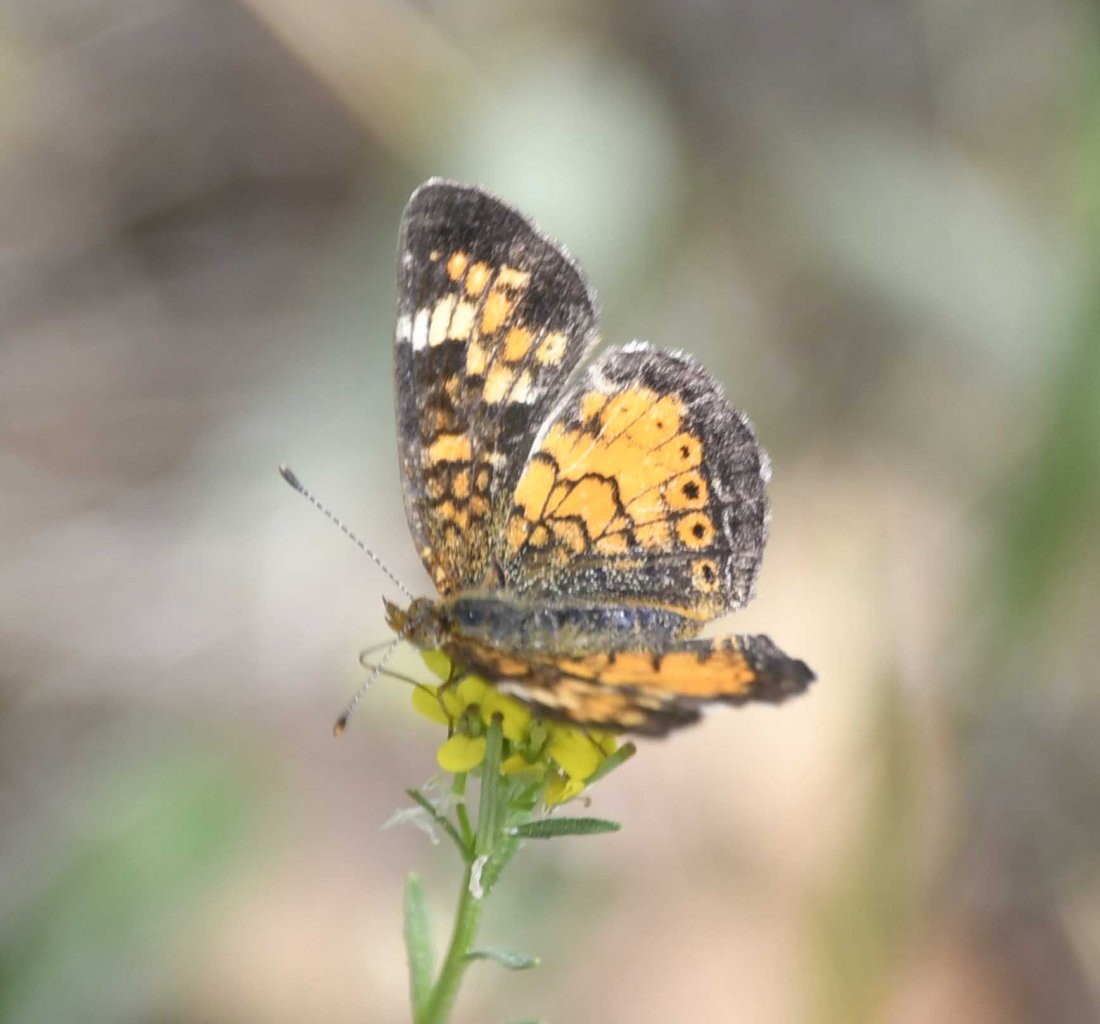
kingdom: Animalia
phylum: Arthropoda
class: Insecta
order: Lepidoptera
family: Nymphalidae
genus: Phyciodes
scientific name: Phyciodes tharos
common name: Northern Crescent
